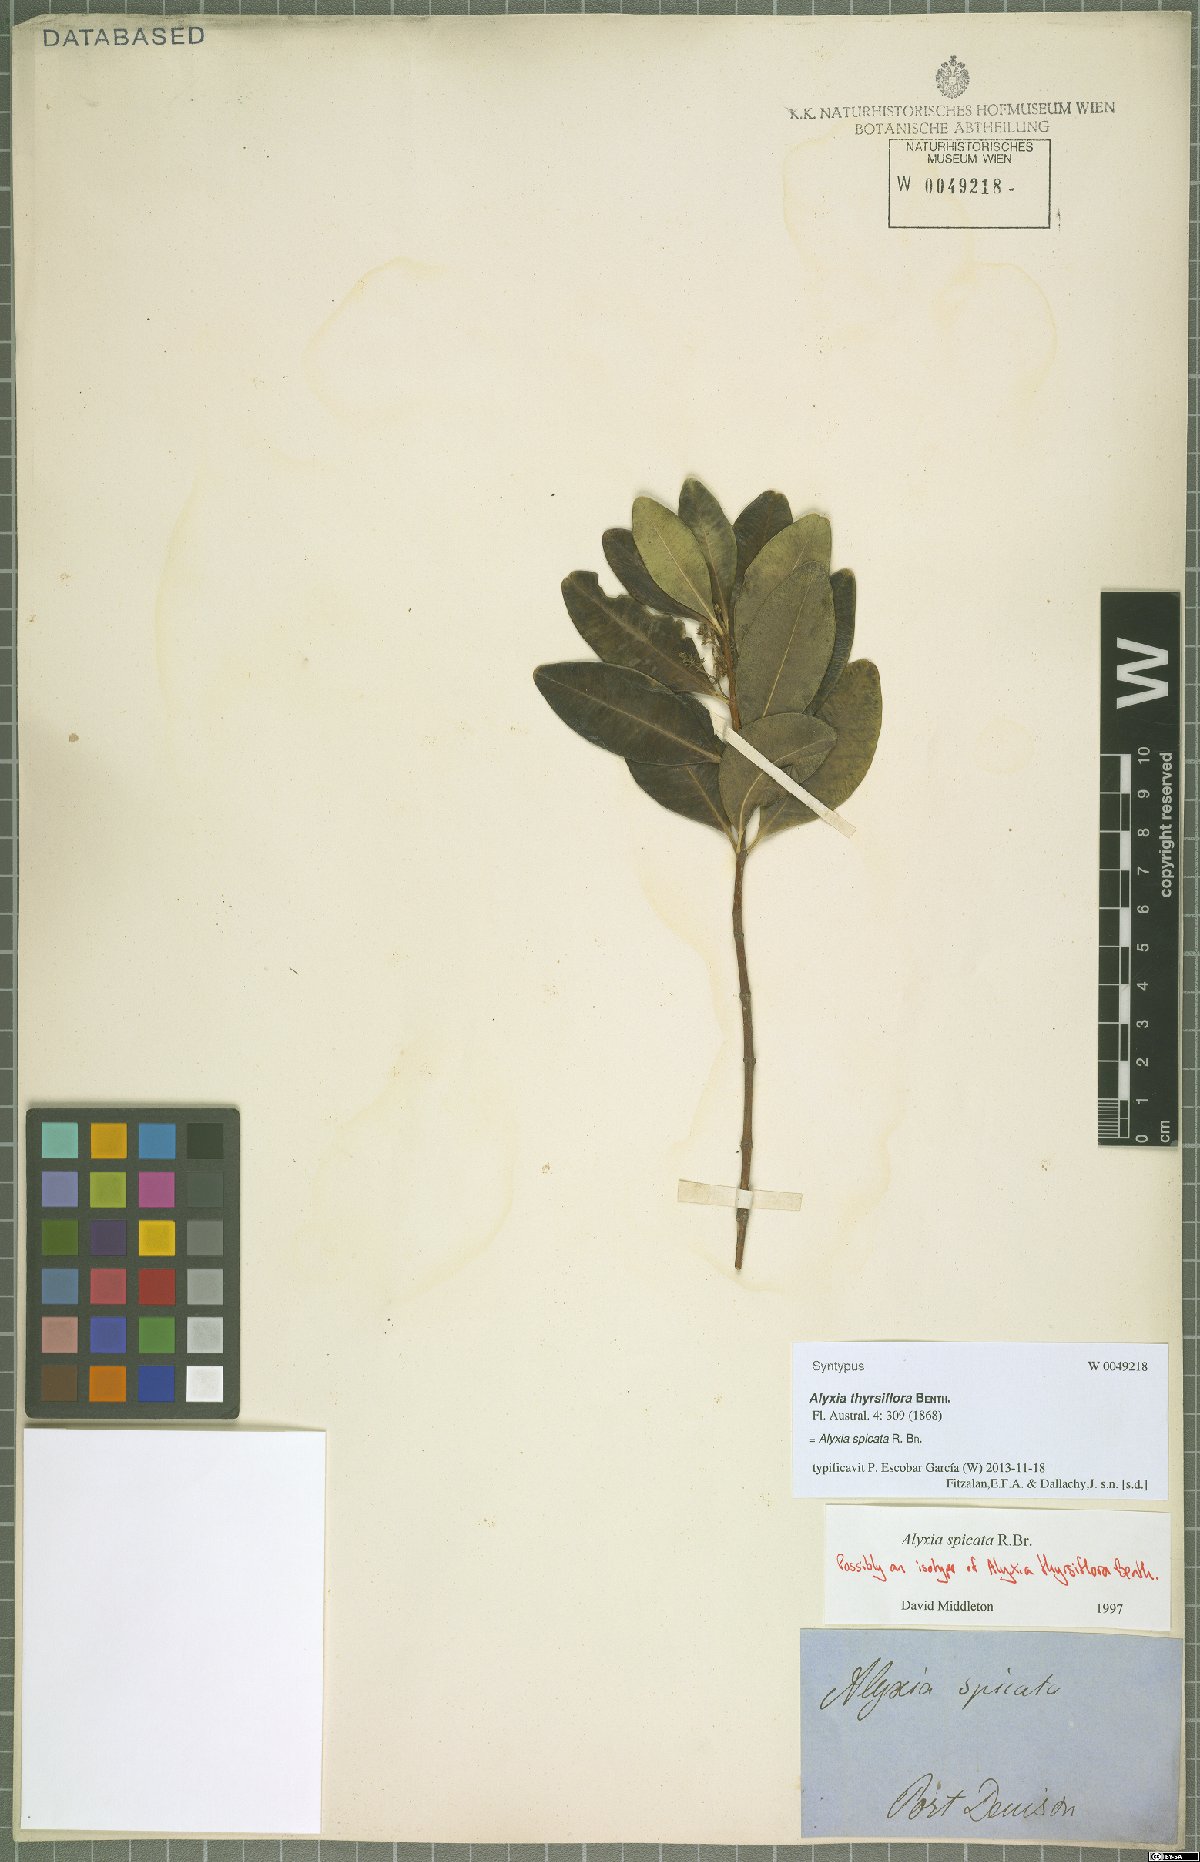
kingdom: Plantae
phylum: Tracheophyta
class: Magnoliopsida
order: Gentianales
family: Apocynaceae
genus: Alyxia
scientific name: Alyxia spicata
